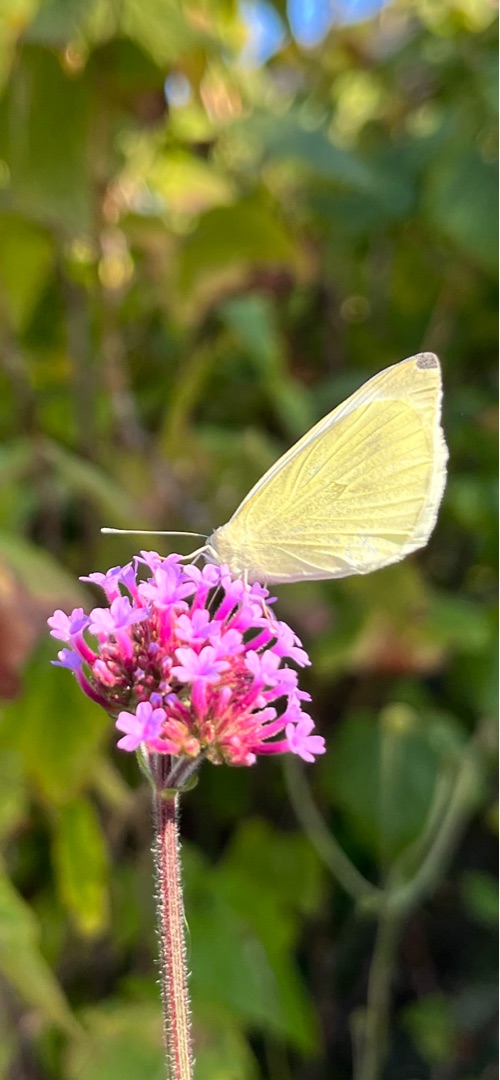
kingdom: Animalia
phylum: Arthropoda
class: Insecta
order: Lepidoptera
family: Pieridae
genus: Pieris
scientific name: Pieris rapae
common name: Lille kålsommerfugl
